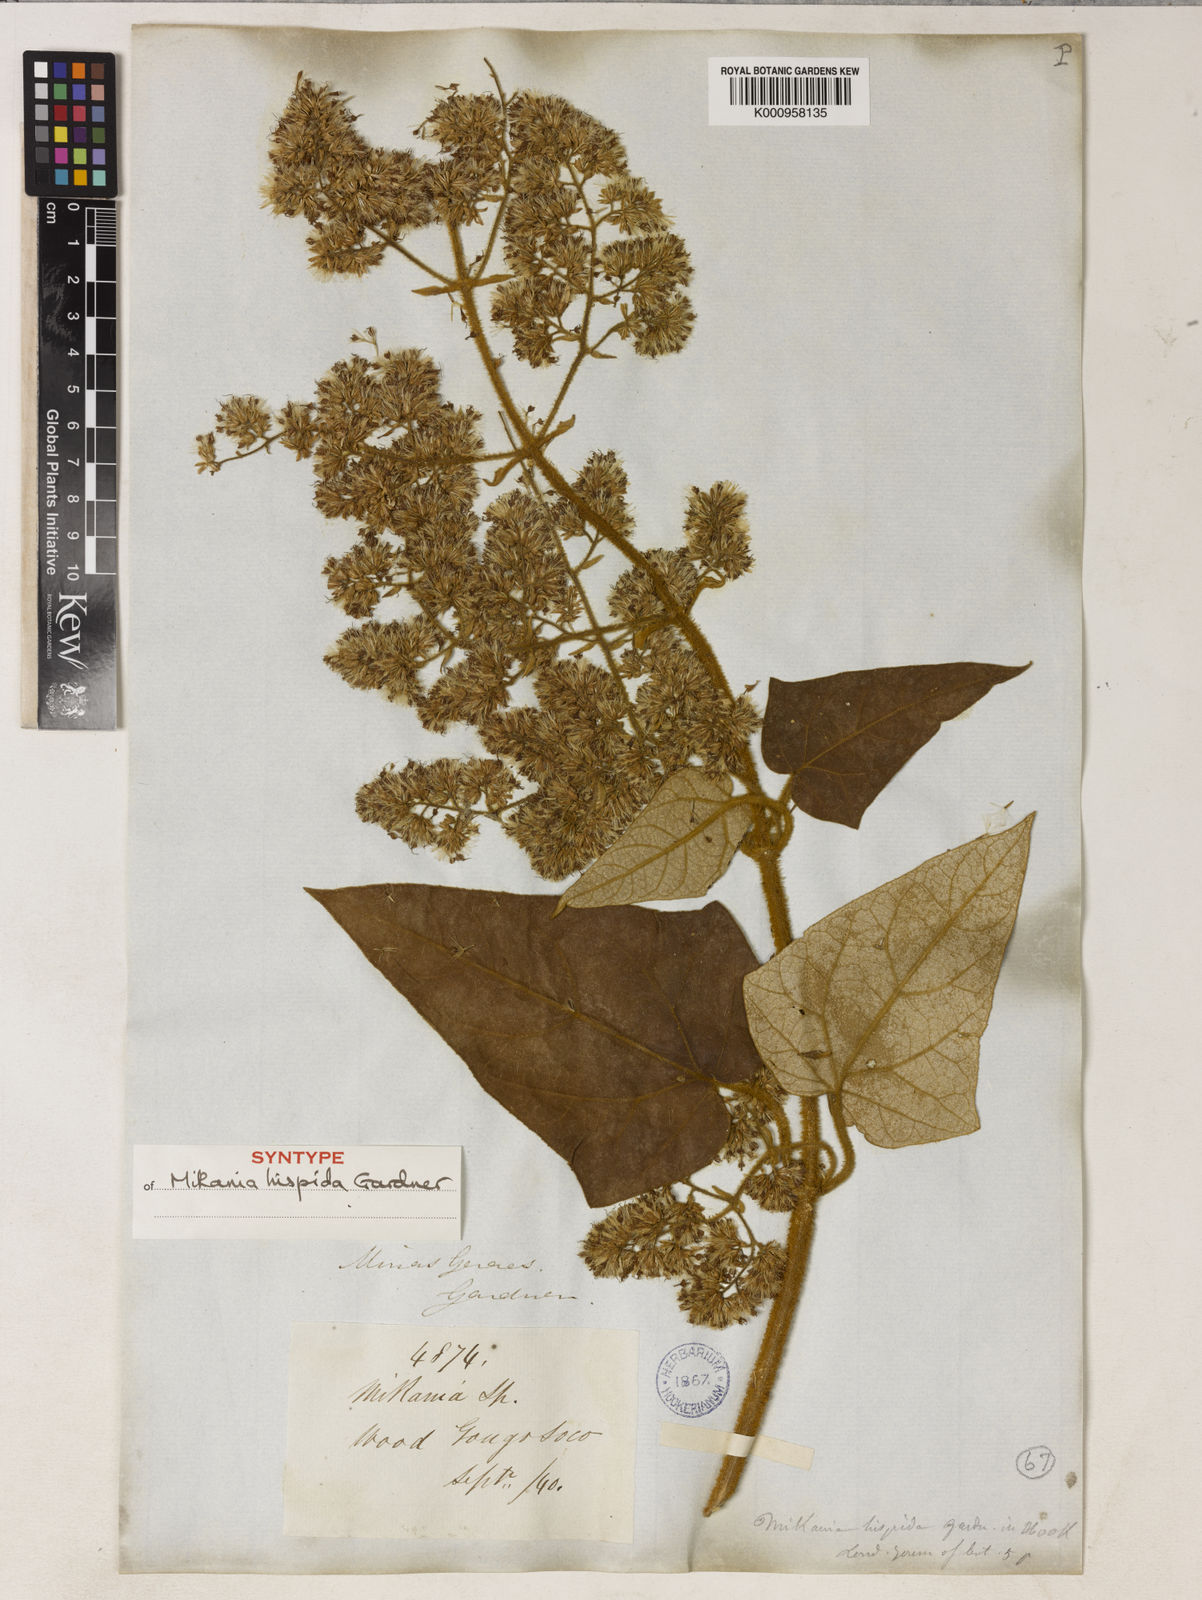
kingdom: Plantae
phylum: Tracheophyta
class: Magnoliopsida
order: Asterales
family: Asteraceae
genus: Mikania
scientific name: Mikania conferta
